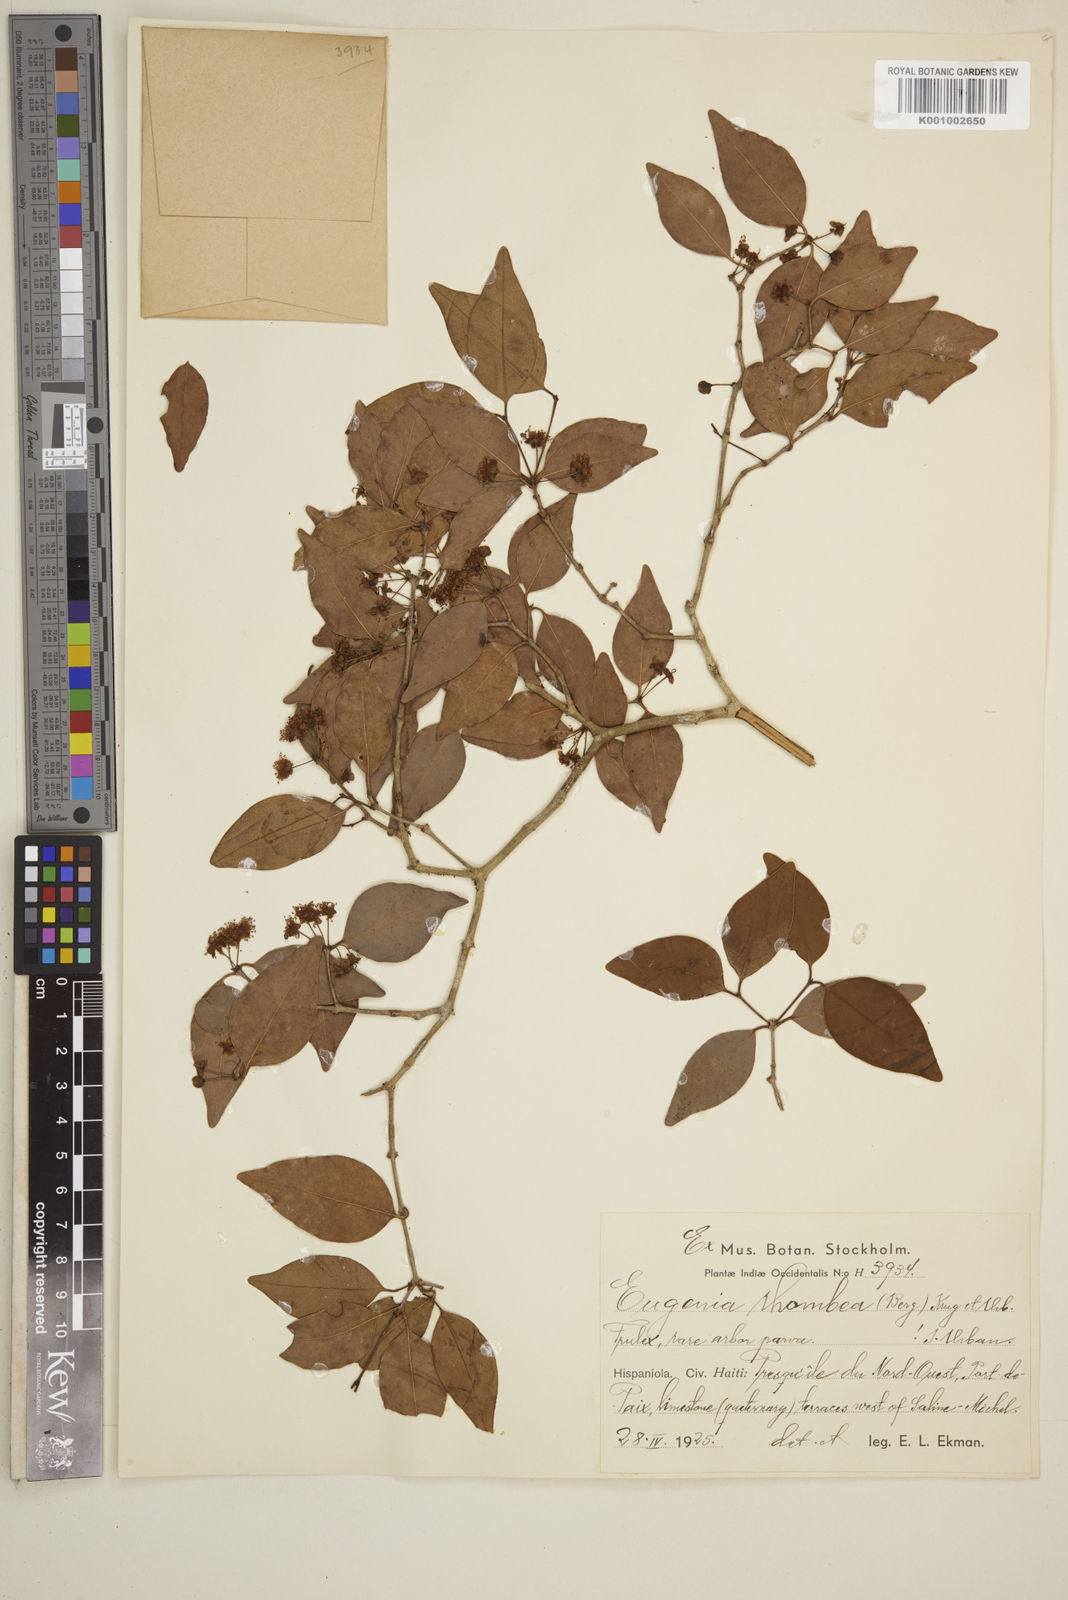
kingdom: Plantae
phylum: Tracheophyta
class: Magnoliopsida
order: Myrtales
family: Myrtaceae
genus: Eugenia
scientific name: Eugenia rhombea
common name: Pigeon berry
